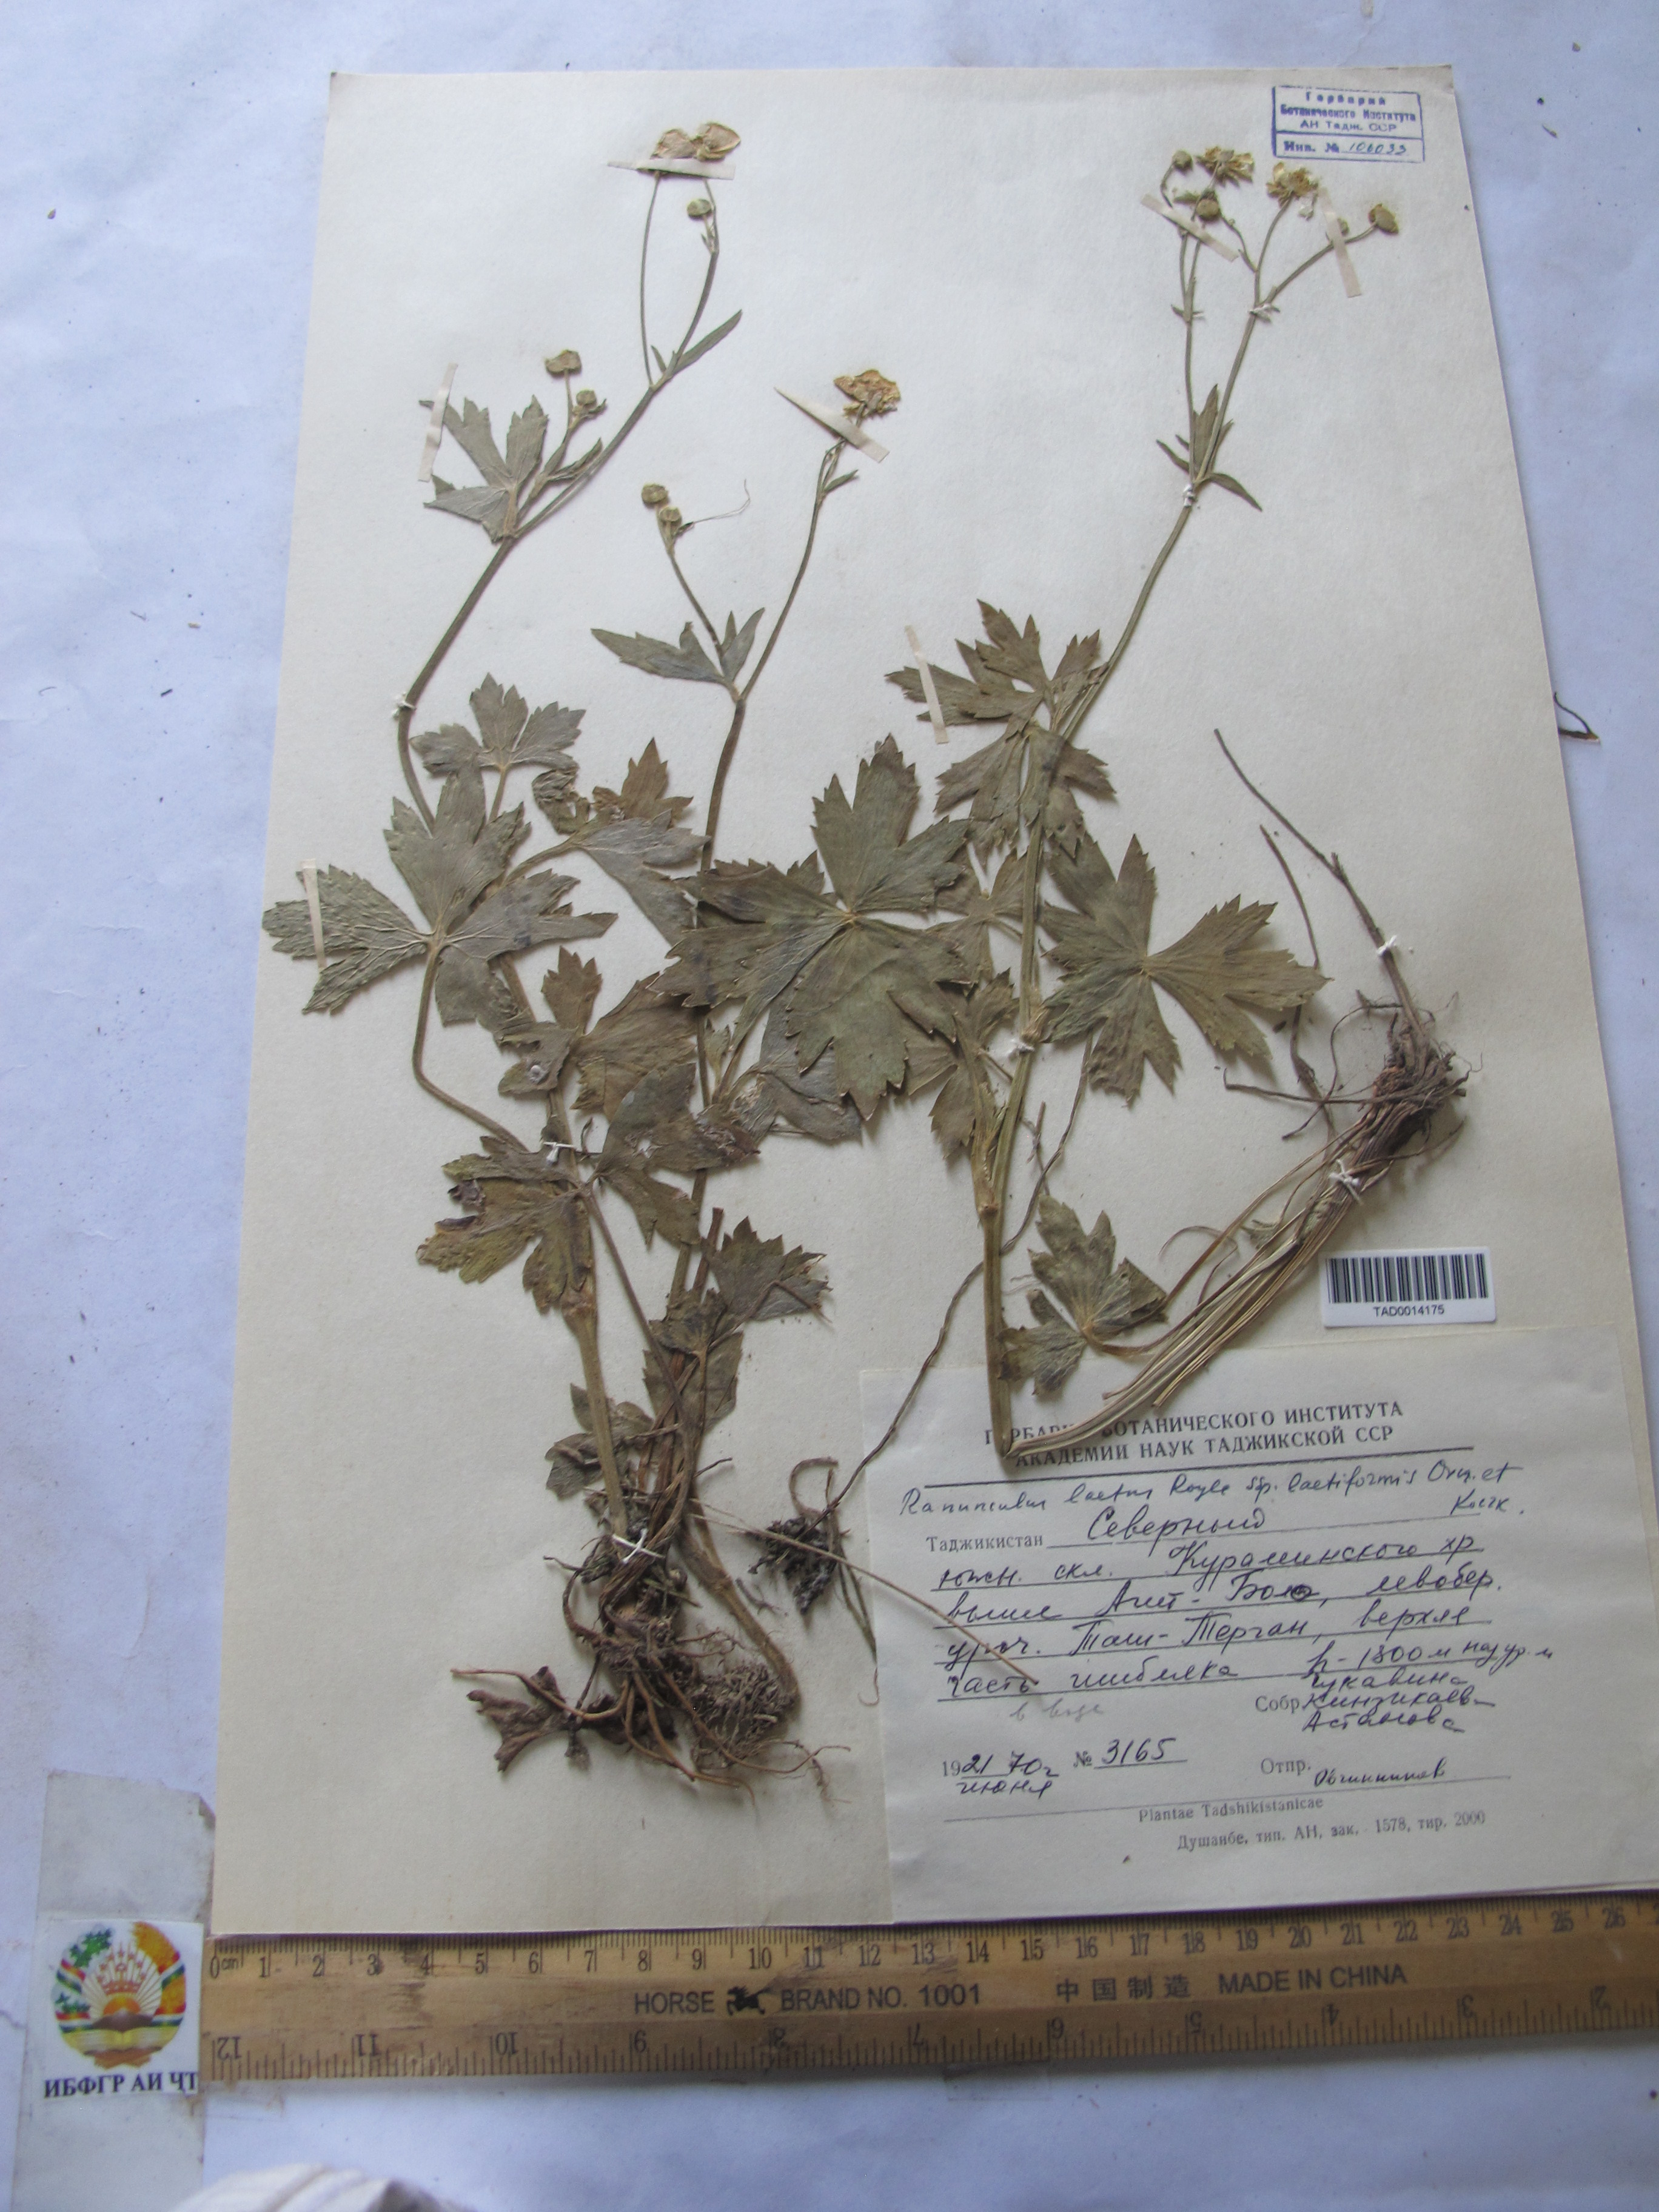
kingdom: Plantae
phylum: Tracheophyta
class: Magnoliopsida
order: Ranunculales
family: Ranunculaceae
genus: Ranunculus
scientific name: Ranunculus distans
